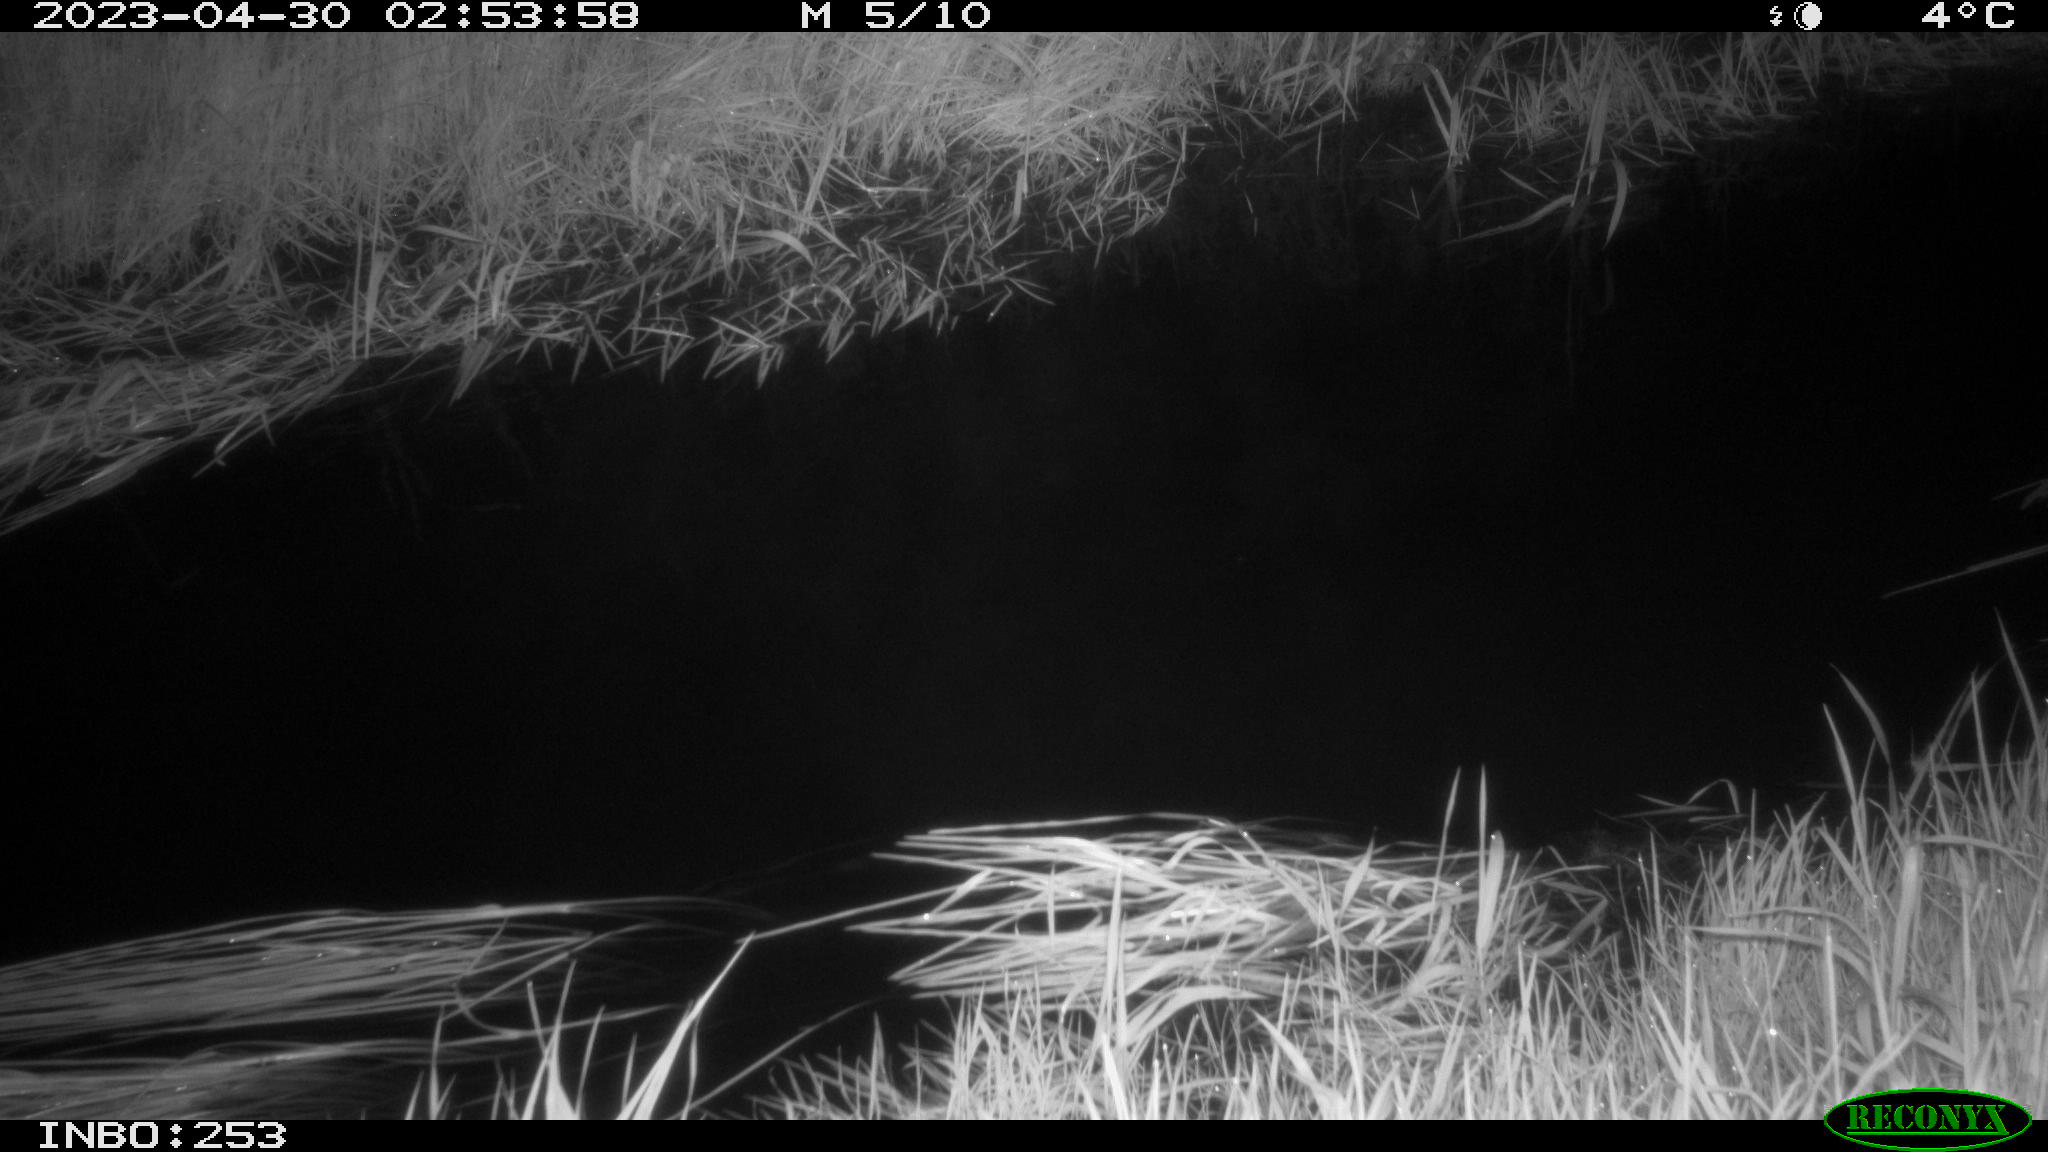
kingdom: Animalia
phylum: Chordata
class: Aves
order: Anseriformes
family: Anatidae
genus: Anas
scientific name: Anas
